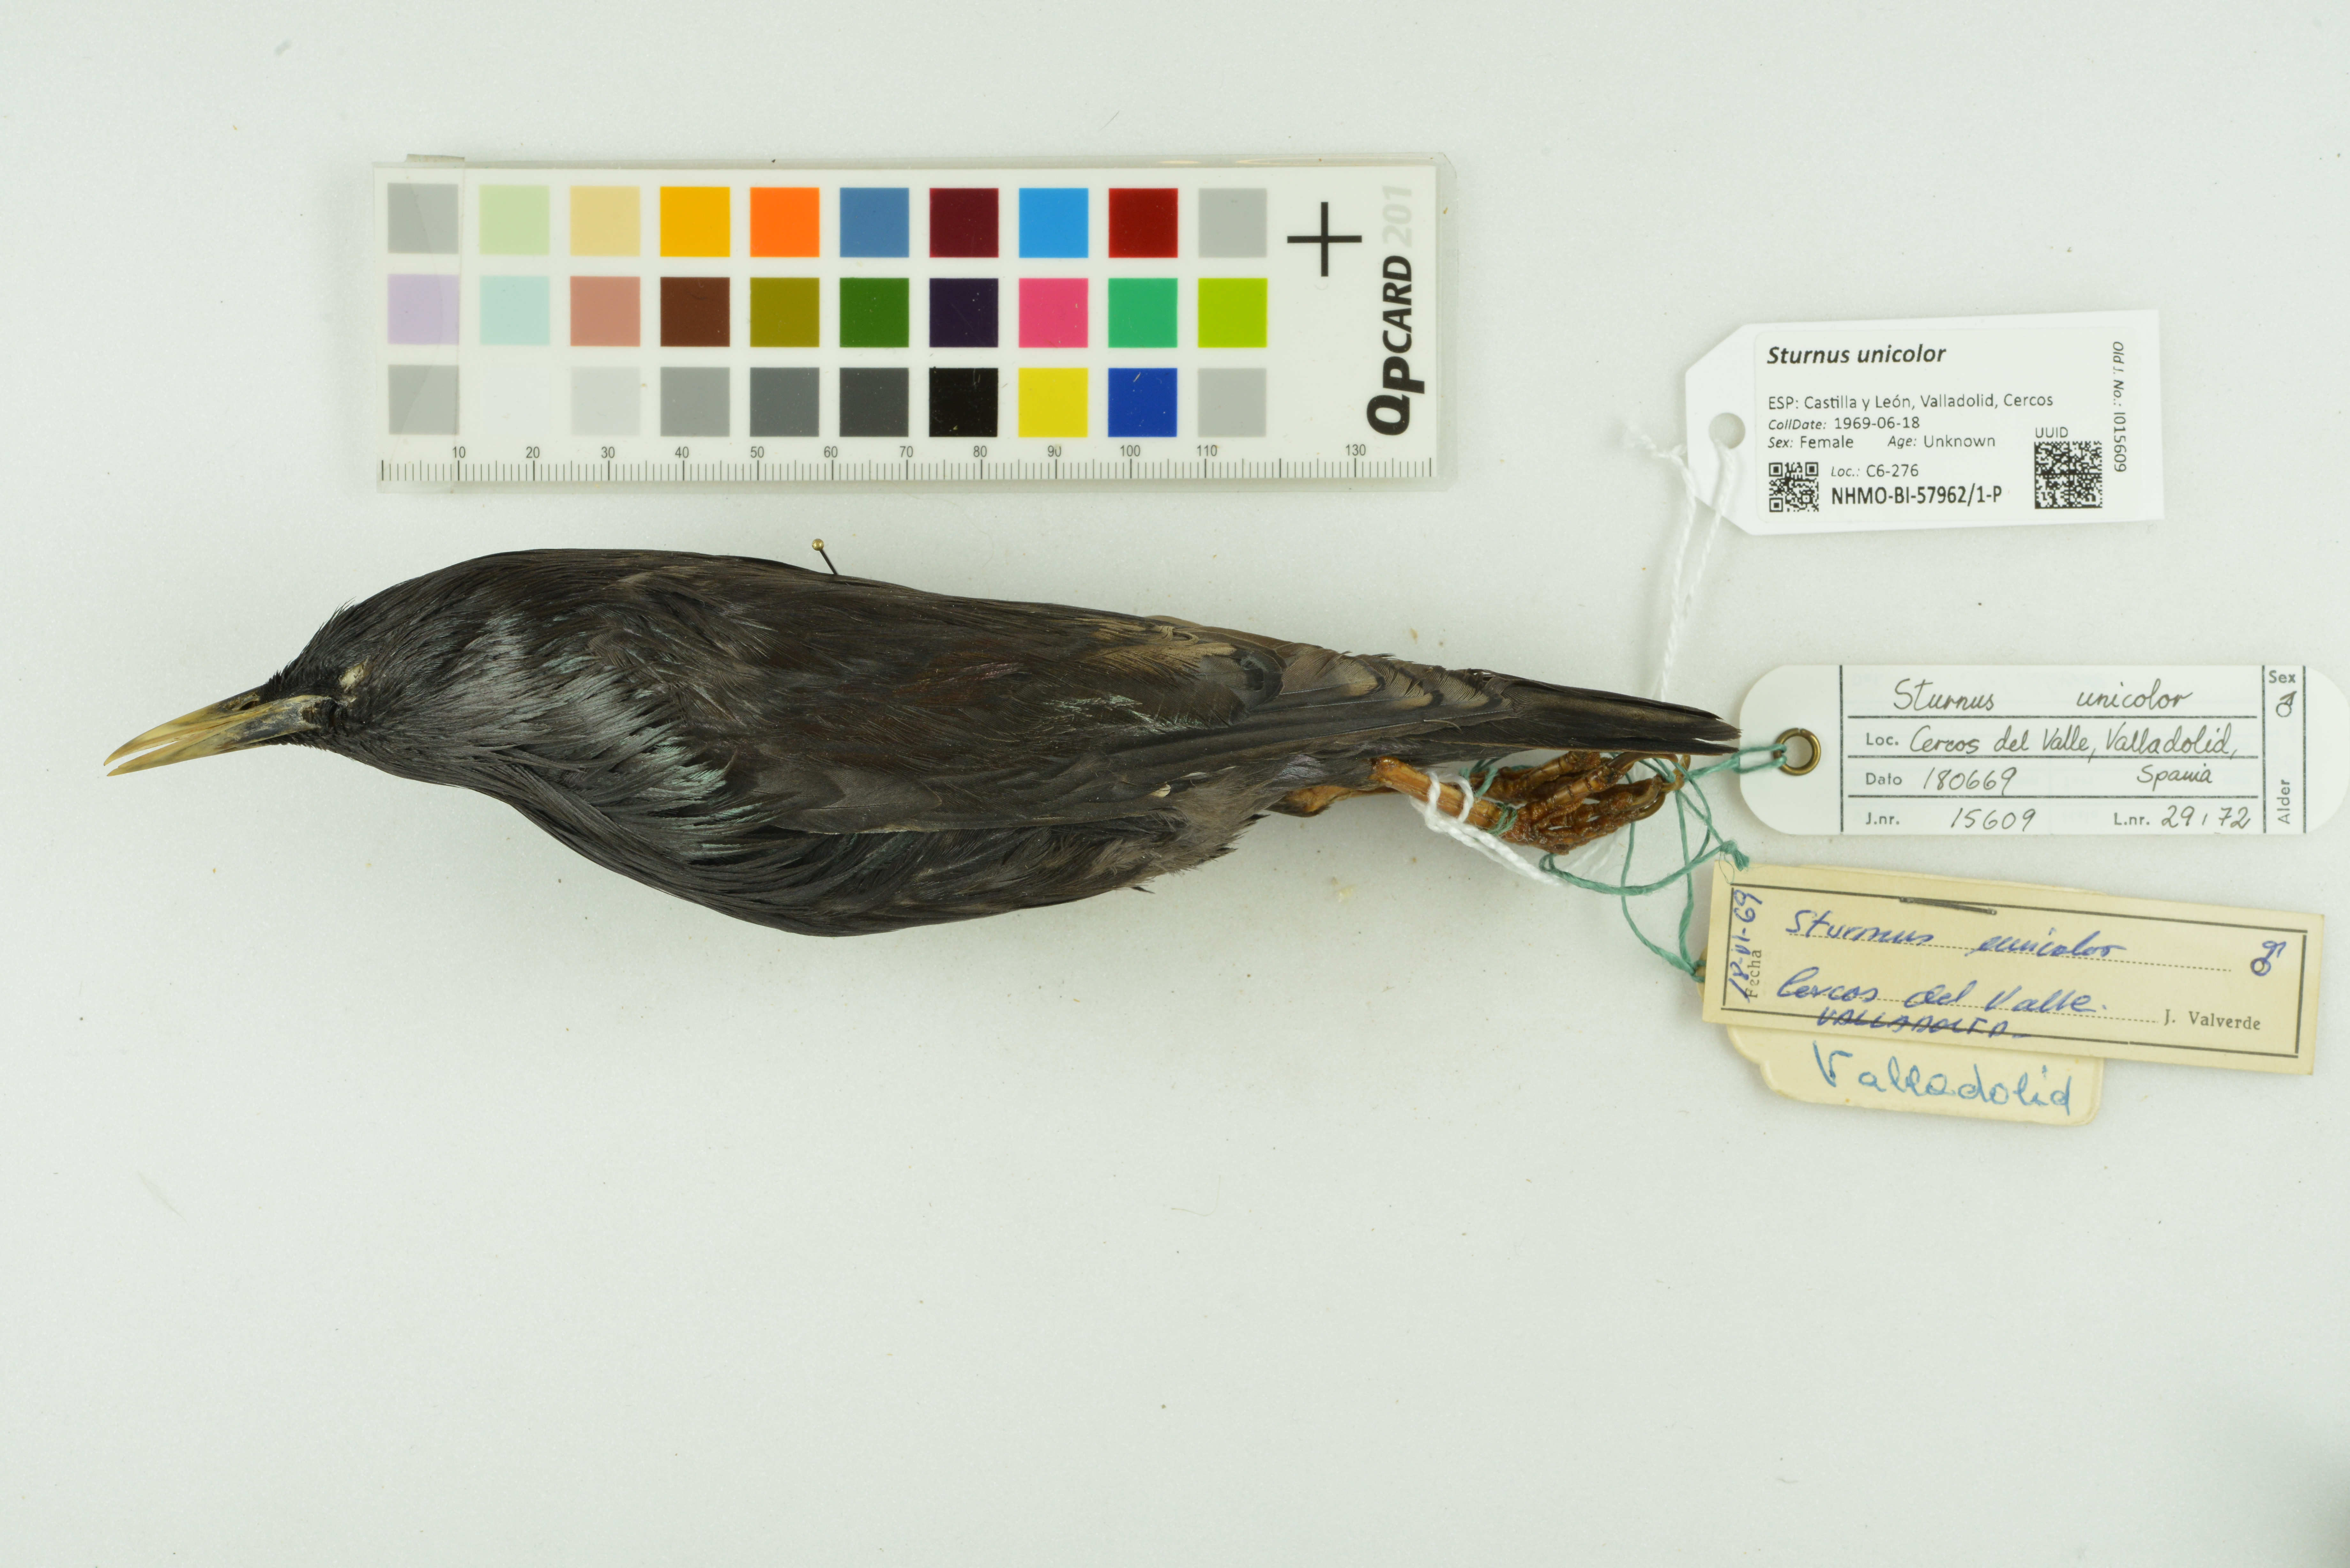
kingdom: Animalia
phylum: Chordata
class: Aves
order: Passeriformes
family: Sturnidae
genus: Sturnus
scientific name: Sturnus unicolor
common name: Spotless starling
